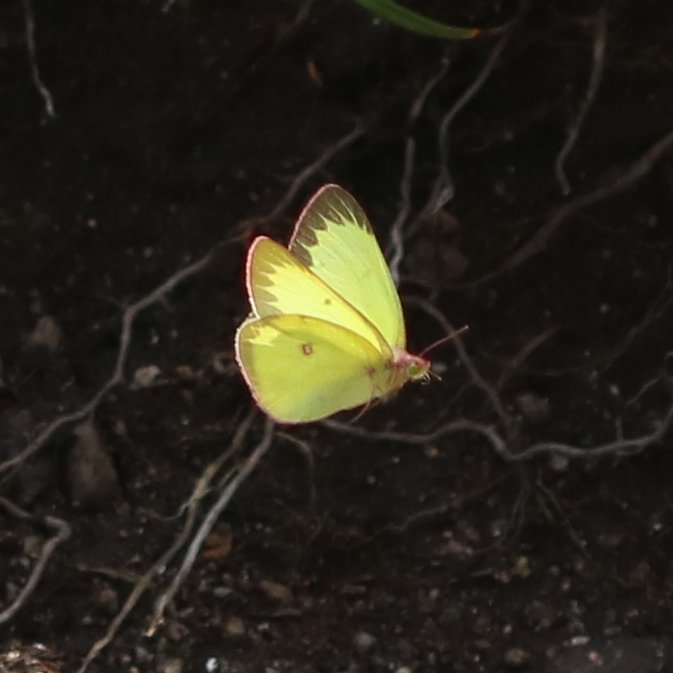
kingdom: Animalia
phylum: Arthropoda
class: Insecta
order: Lepidoptera
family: Pieridae
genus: Colias
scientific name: Colias interior
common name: Pink-edged Sulphur
